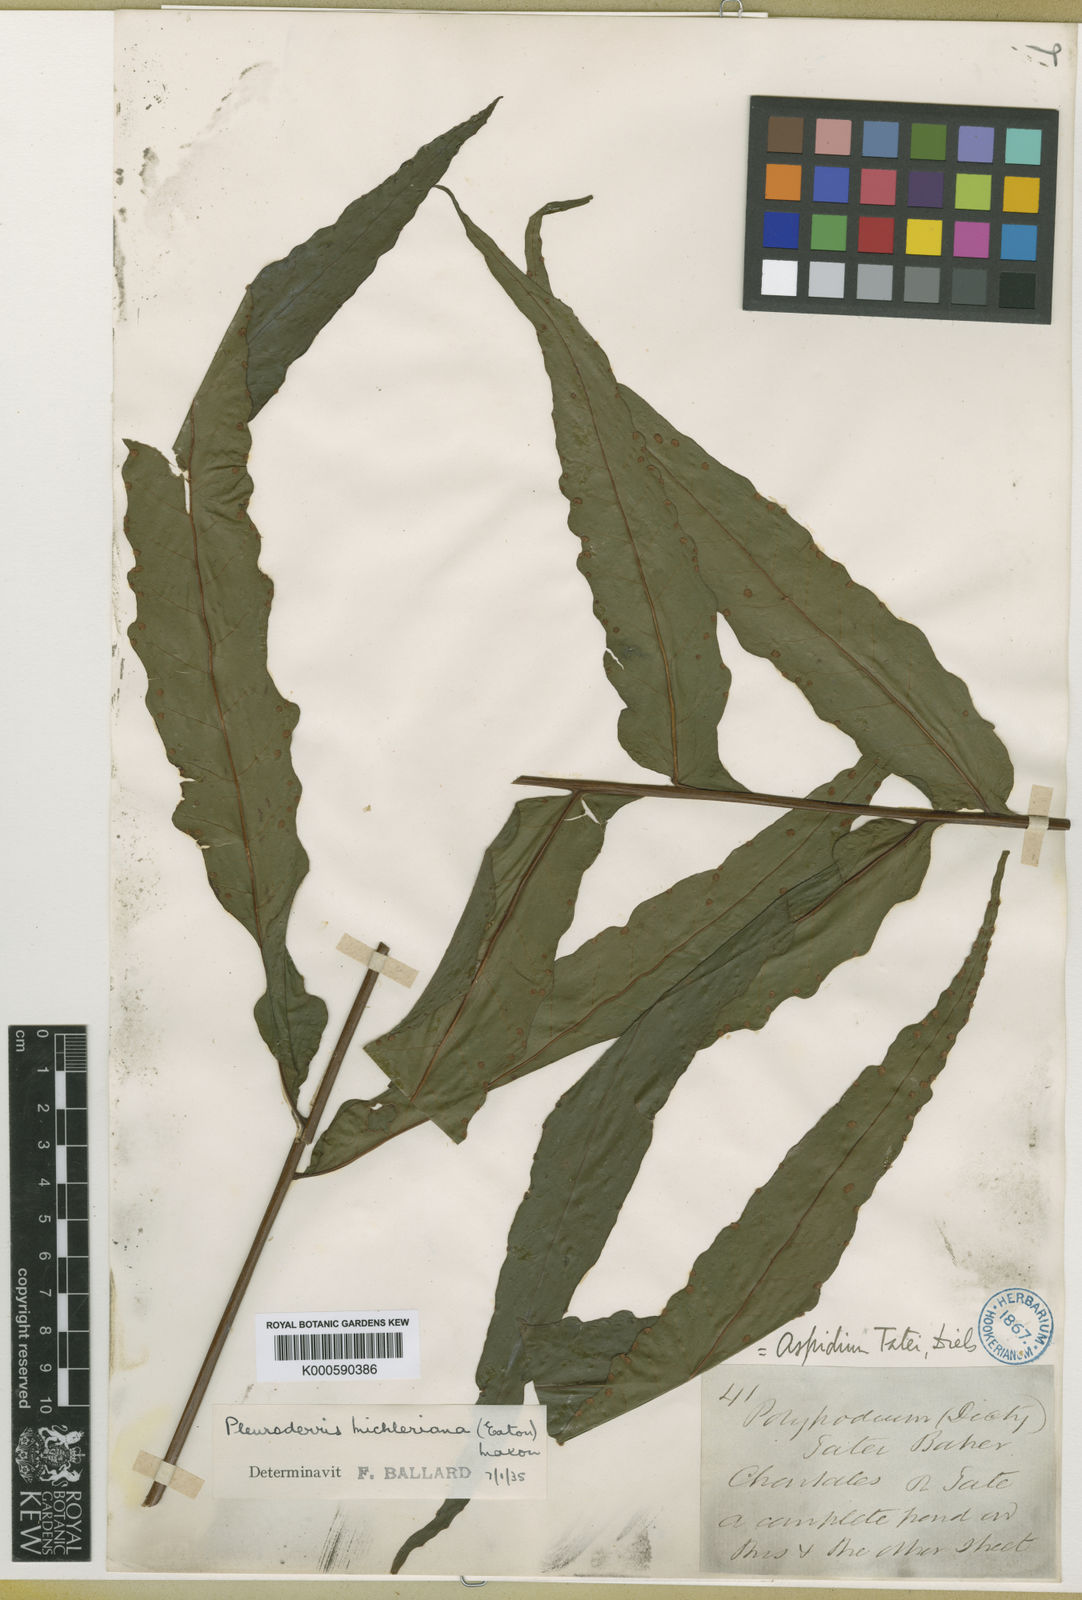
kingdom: Plantae
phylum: Tracheophyta
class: Polypodiopsida
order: Polypodiales
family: Tectariaceae
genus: Tectaria
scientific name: Tectaria michleriana
